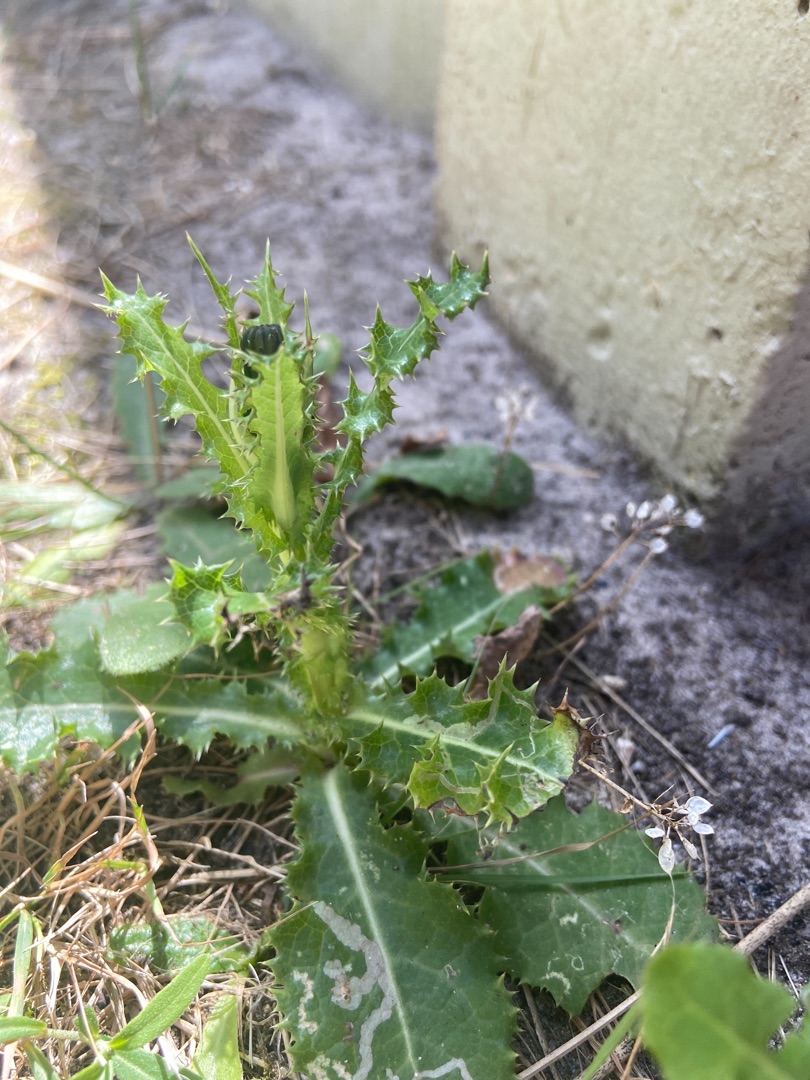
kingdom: Plantae
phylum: Tracheophyta
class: Magnoliopsida
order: Asterales
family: Asteraceae
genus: Sonchus
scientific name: Sonchus asper
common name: Ru svinemælk
